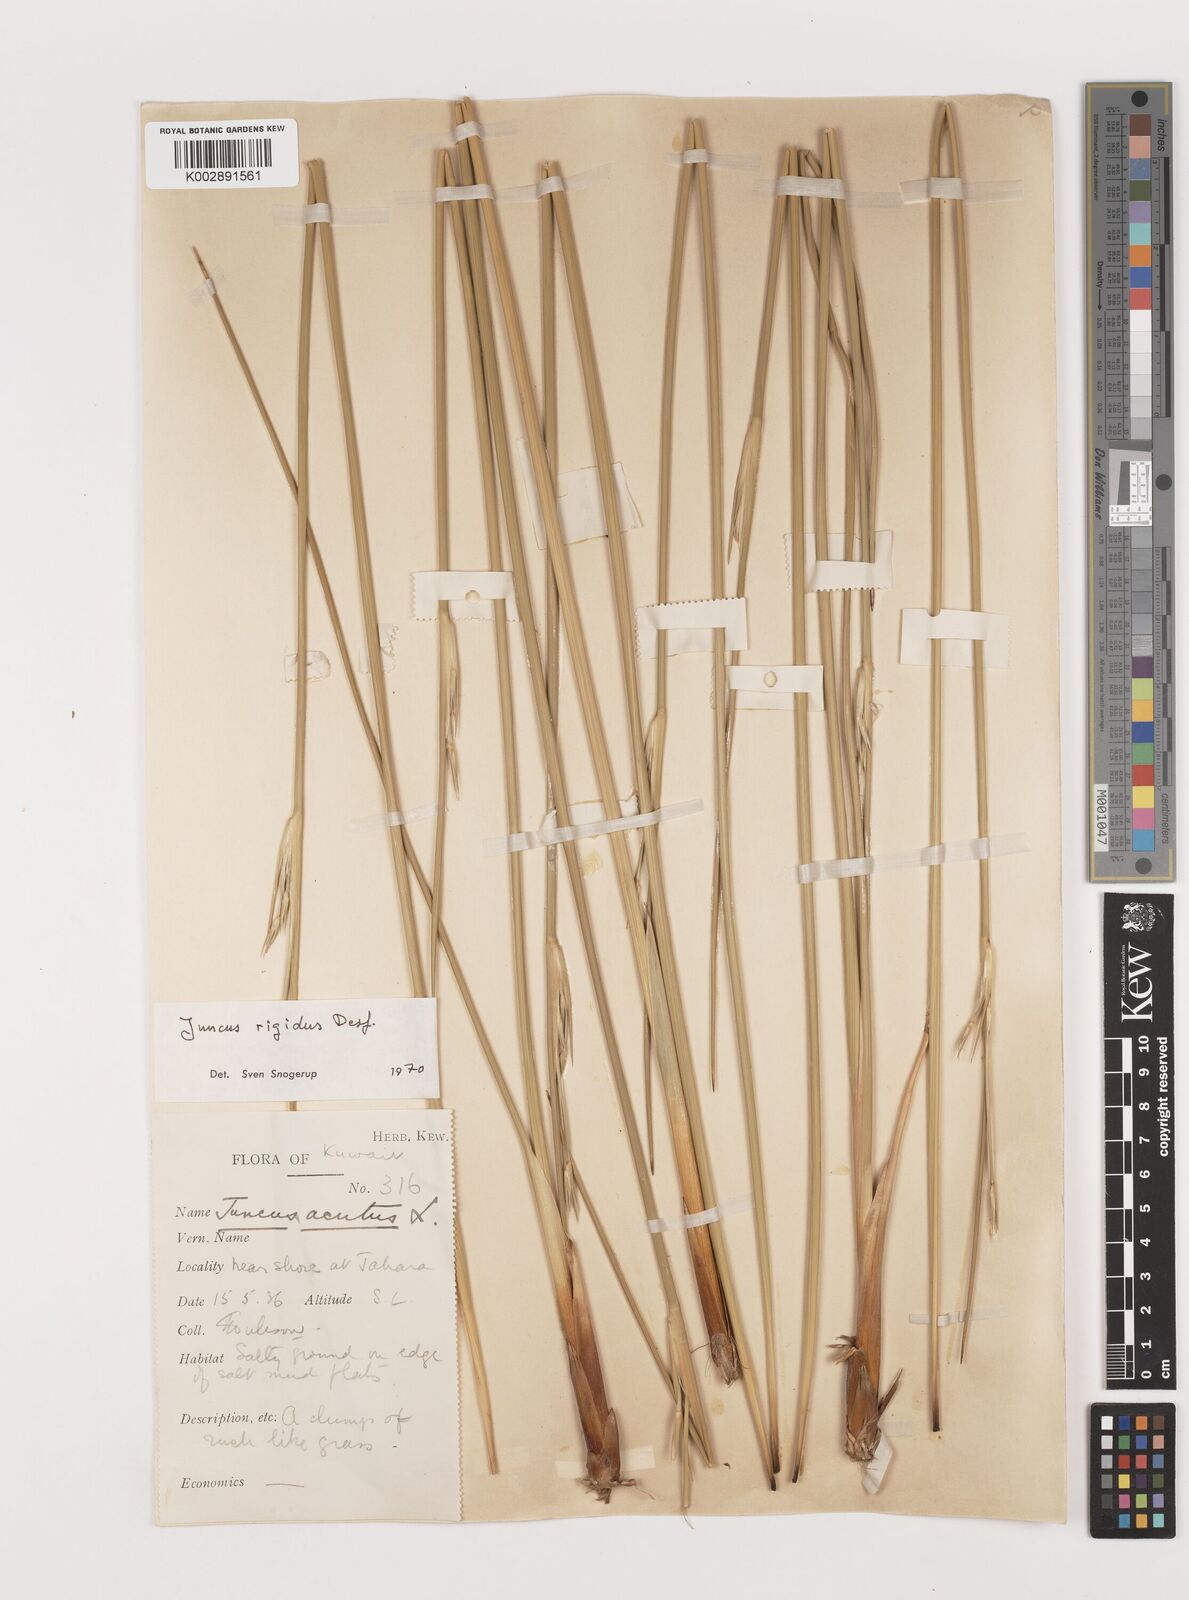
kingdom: Plantae
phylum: Tracheophyta
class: Liliopsida
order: Poales
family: Juncaceae
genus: Juncus
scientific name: Juncus rigidus
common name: Hard sea rush
